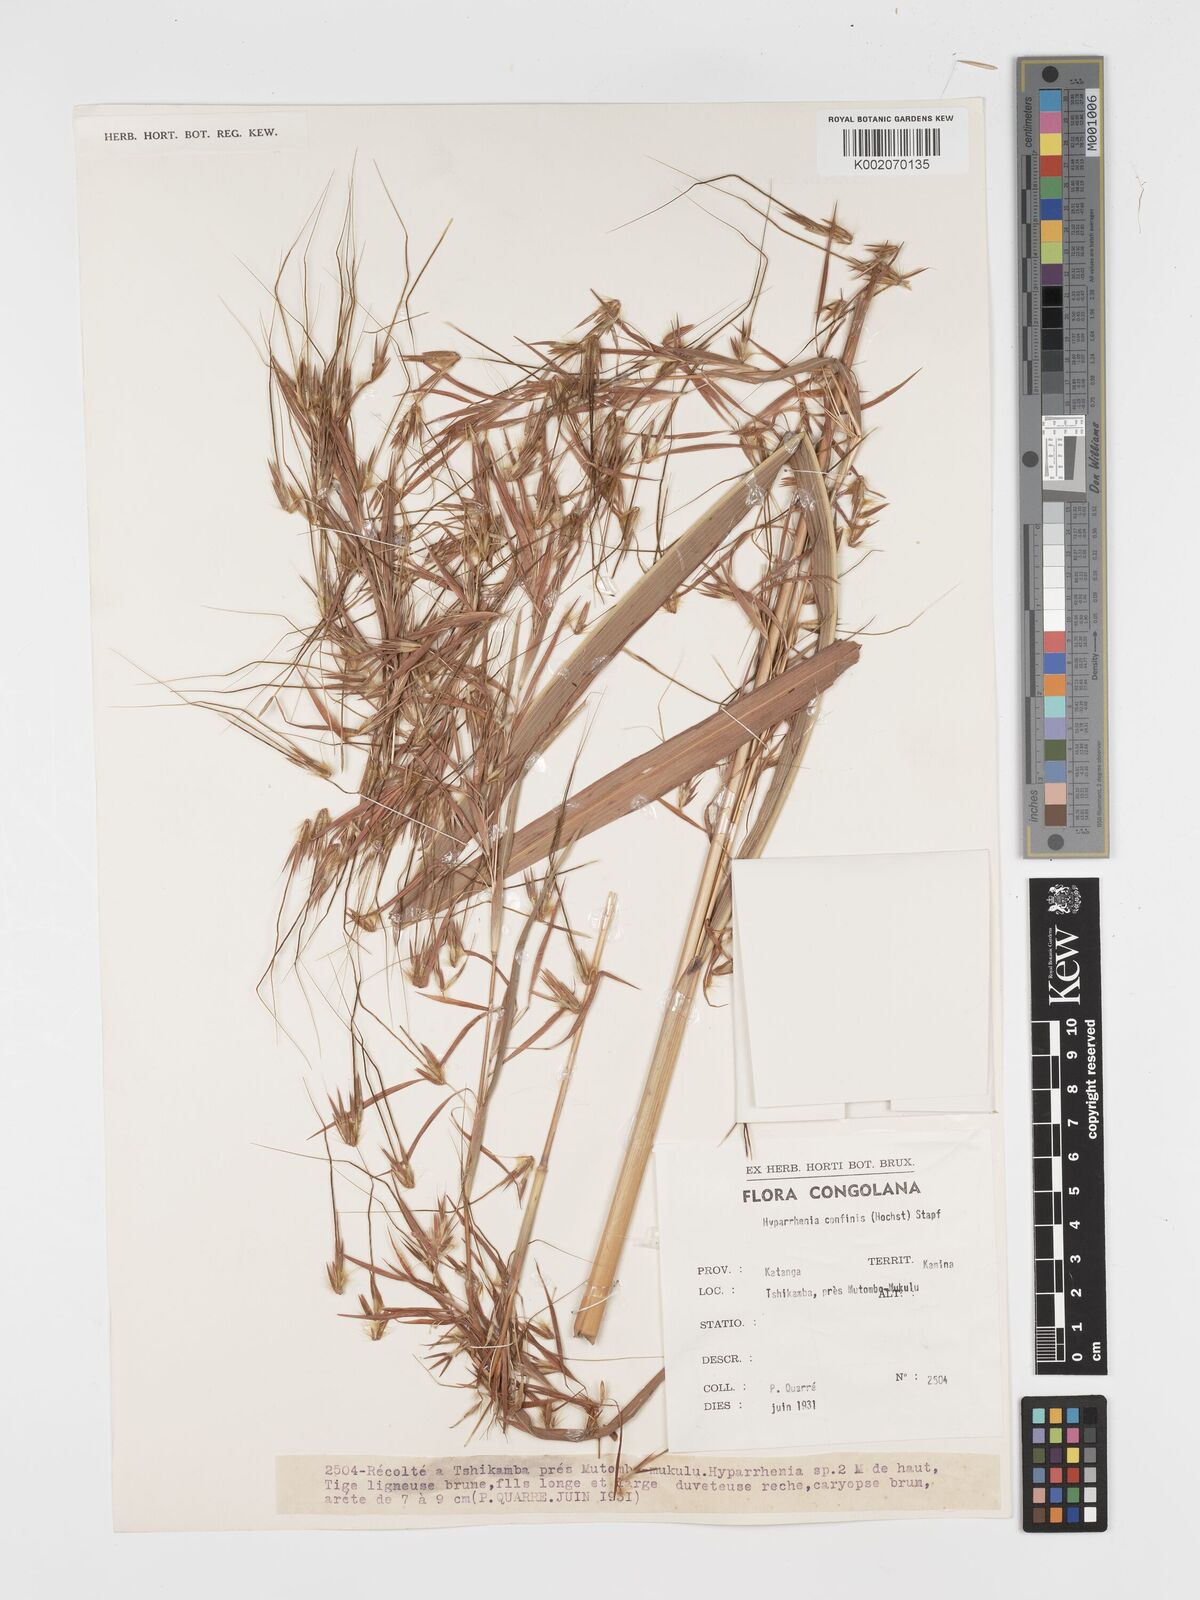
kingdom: Plantae
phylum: Tracheophyta
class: Liliopsida
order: Poales
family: Poaceae
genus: Hyparrhenia
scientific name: Hyparrhenia niariensis
